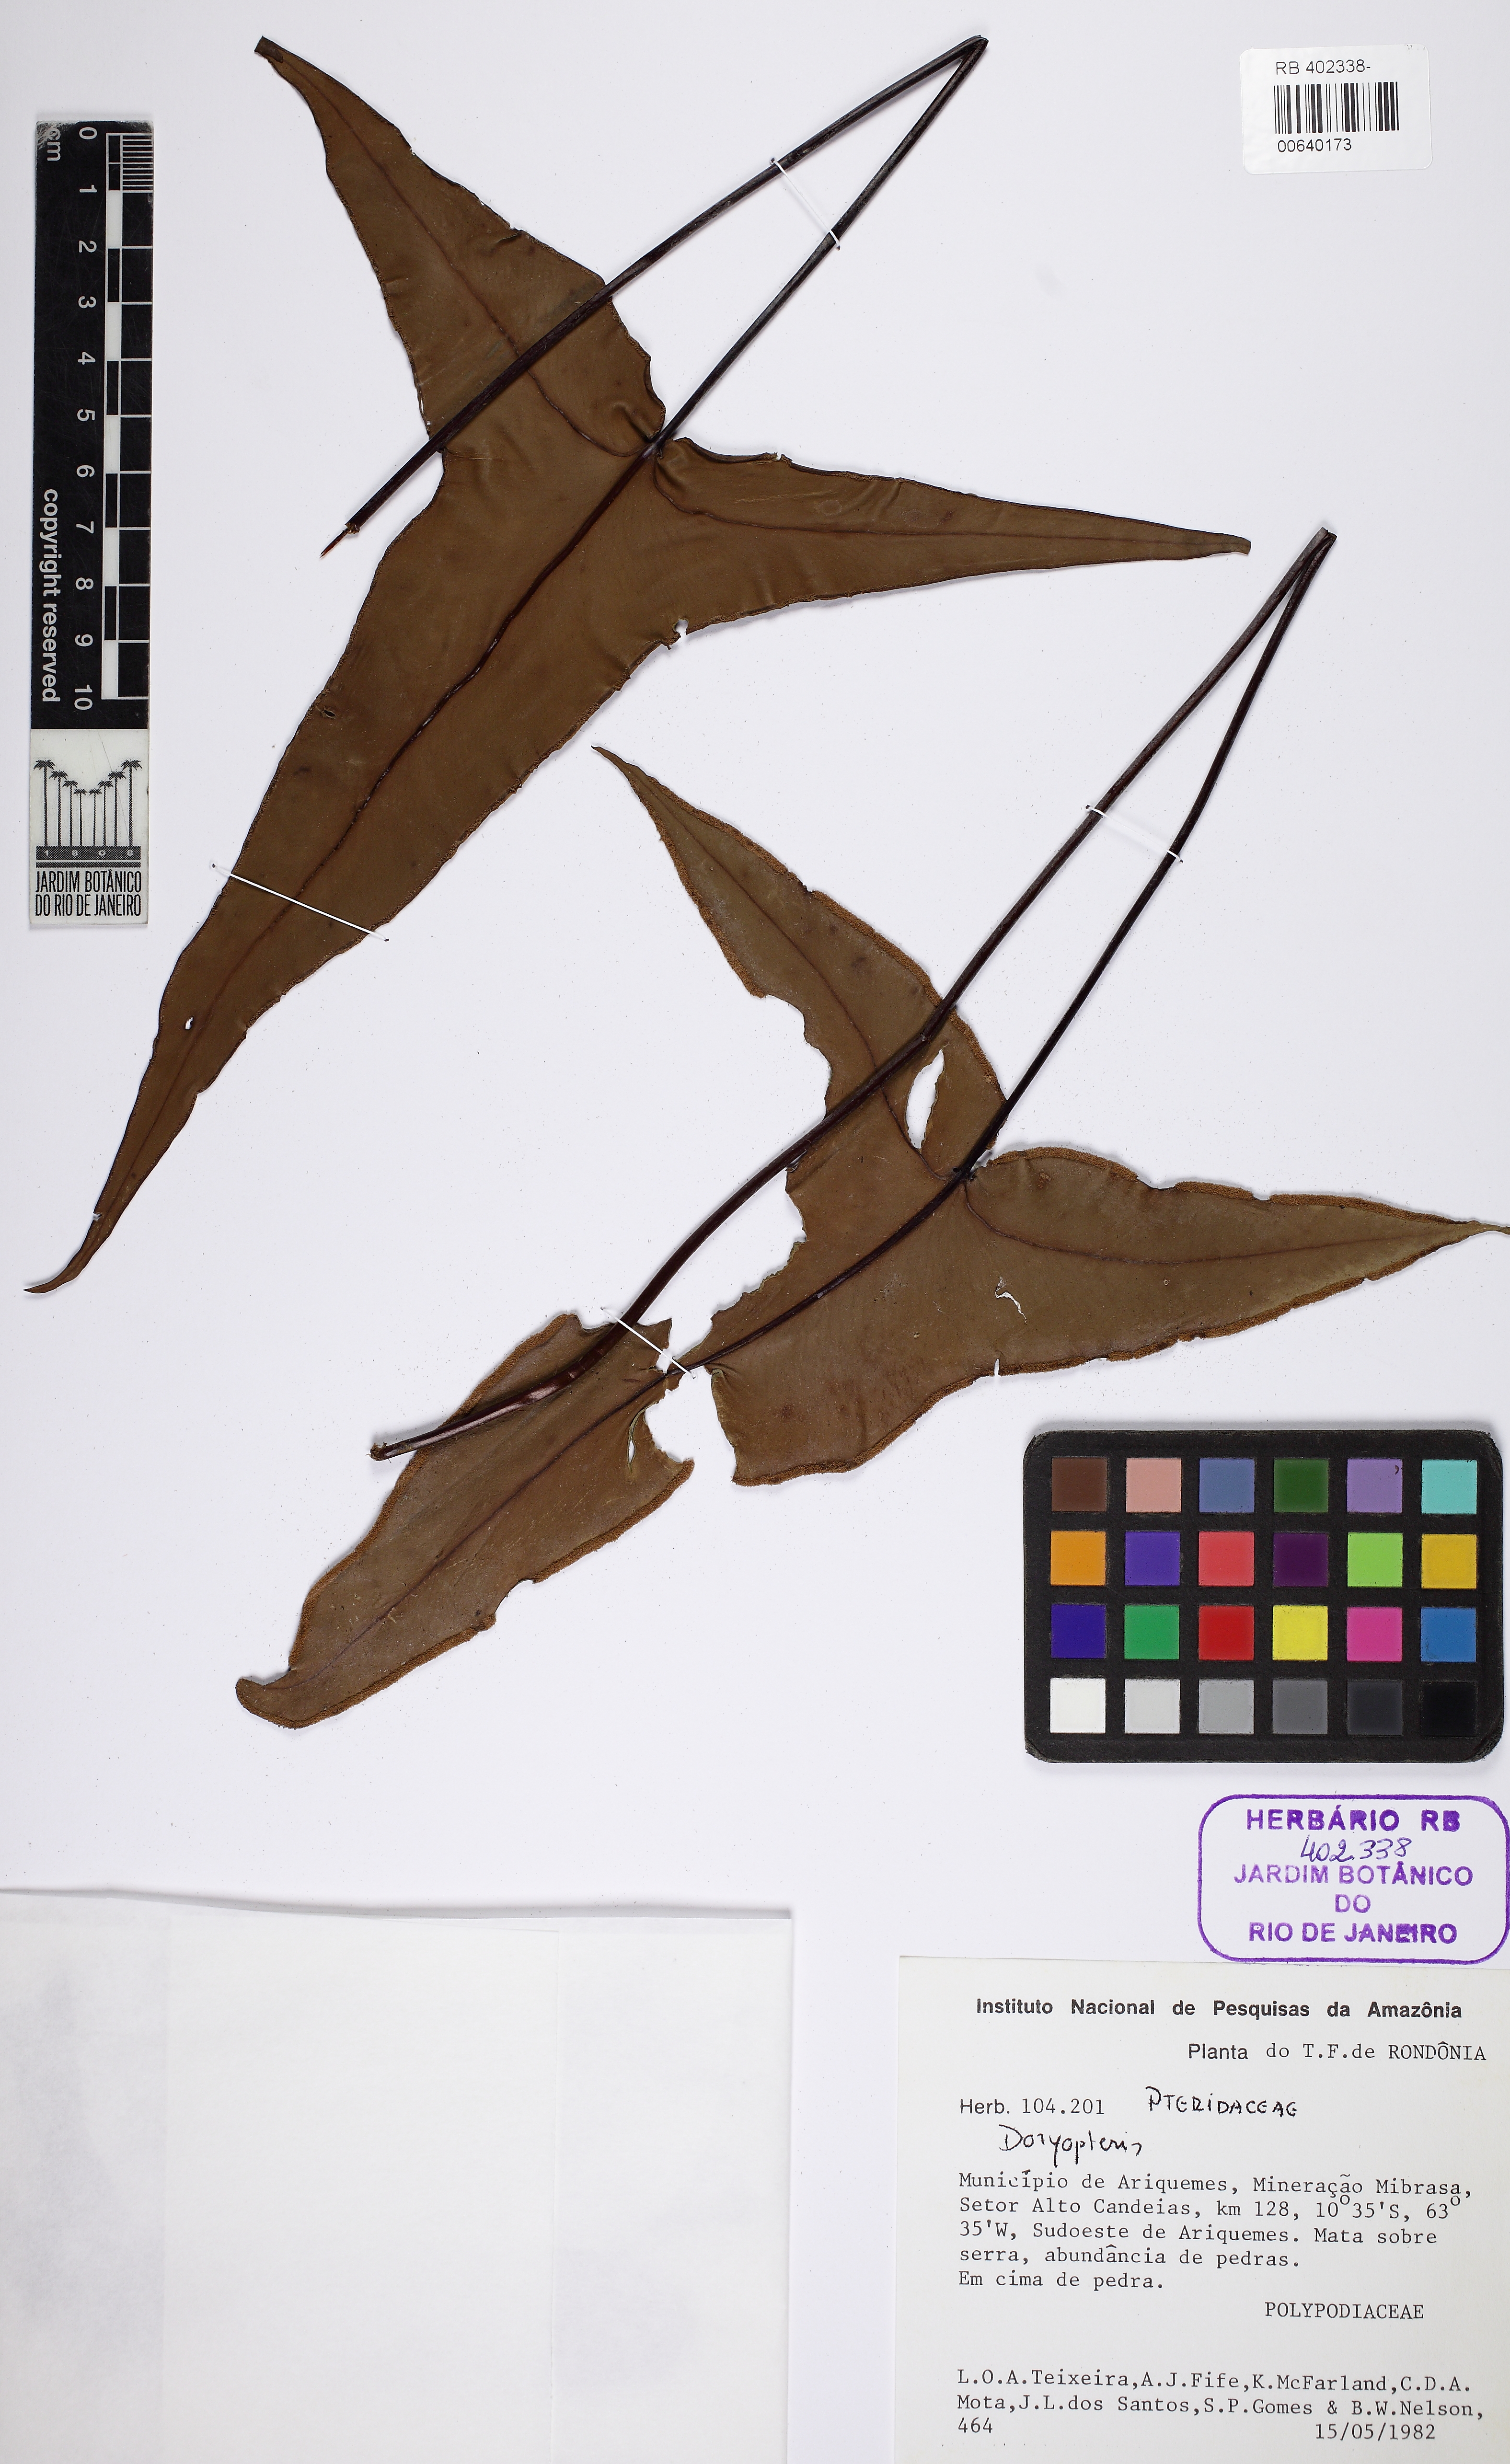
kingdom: Plantae
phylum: Tracheophyta
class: Polypodiopsida
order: Polypodiales
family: Pteridaceae
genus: Doryopteris
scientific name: Doryopteris sagittifolia
